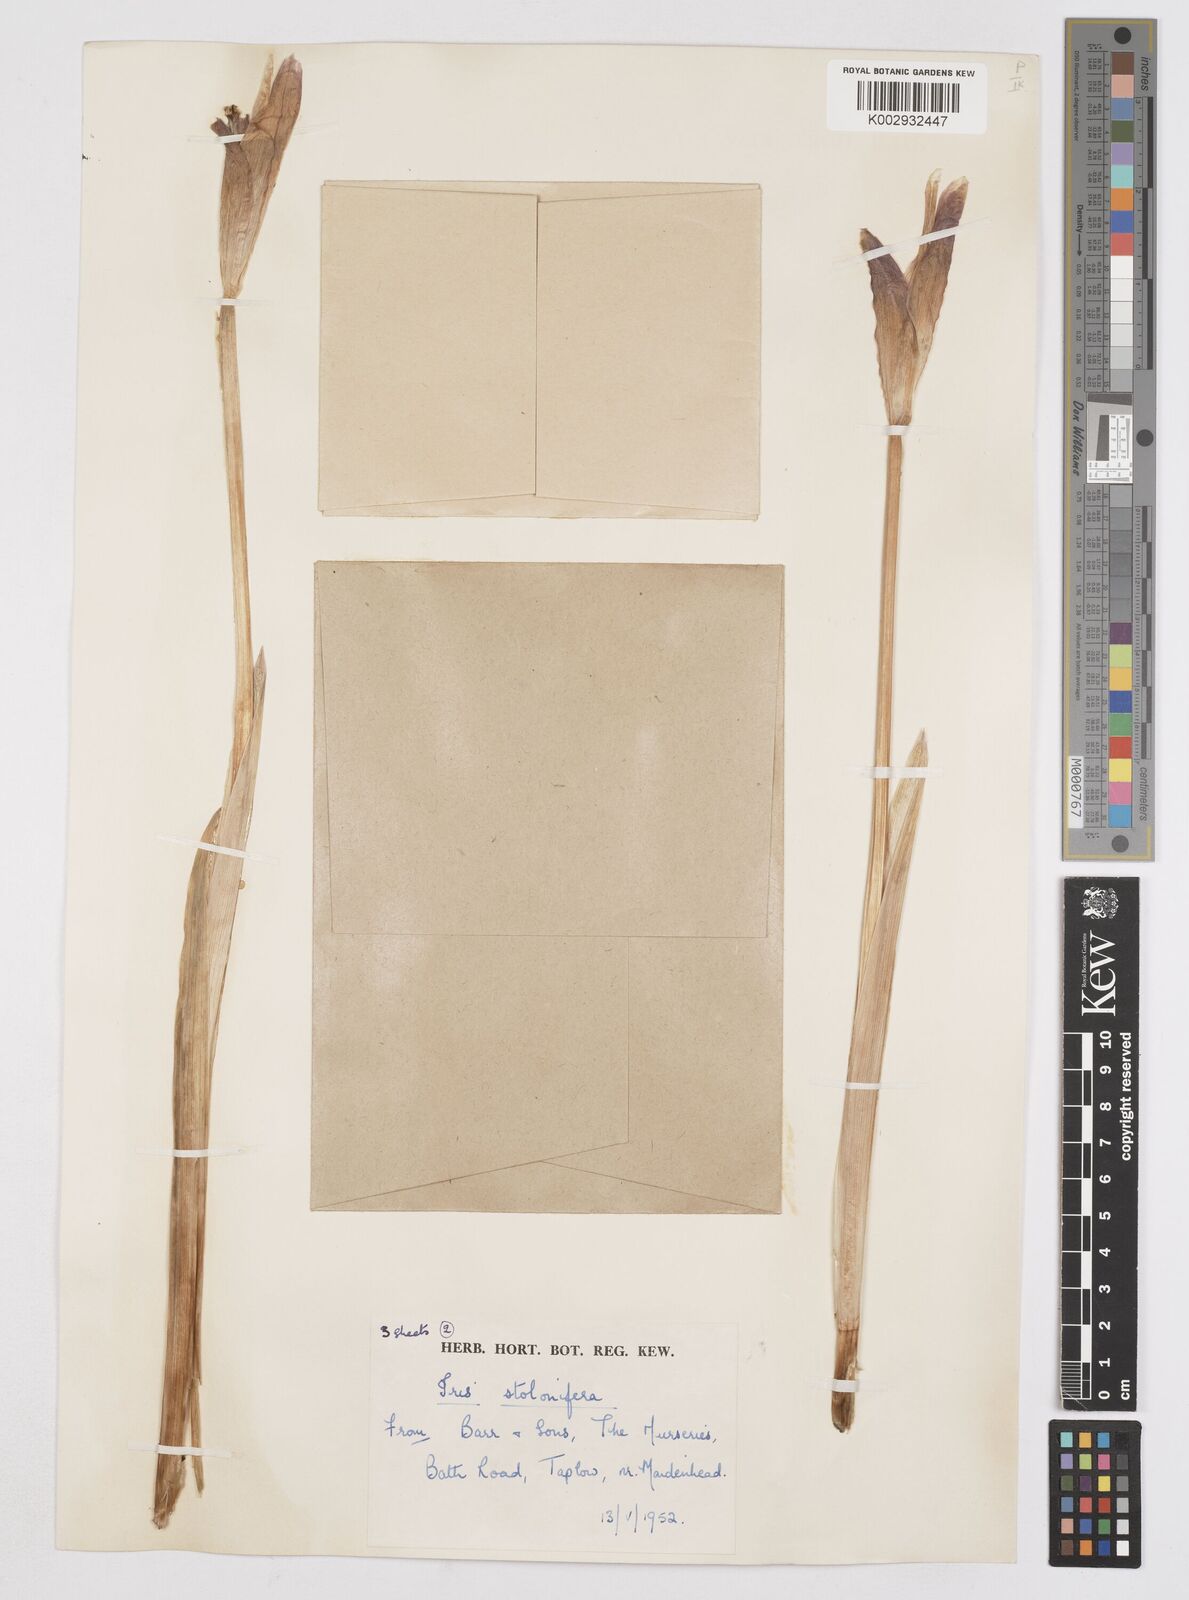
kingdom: Plantae
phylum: Tracheophyta
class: Liliopsida
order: Asparagales
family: Iridaceae
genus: Iris
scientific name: Iris stolonifera
